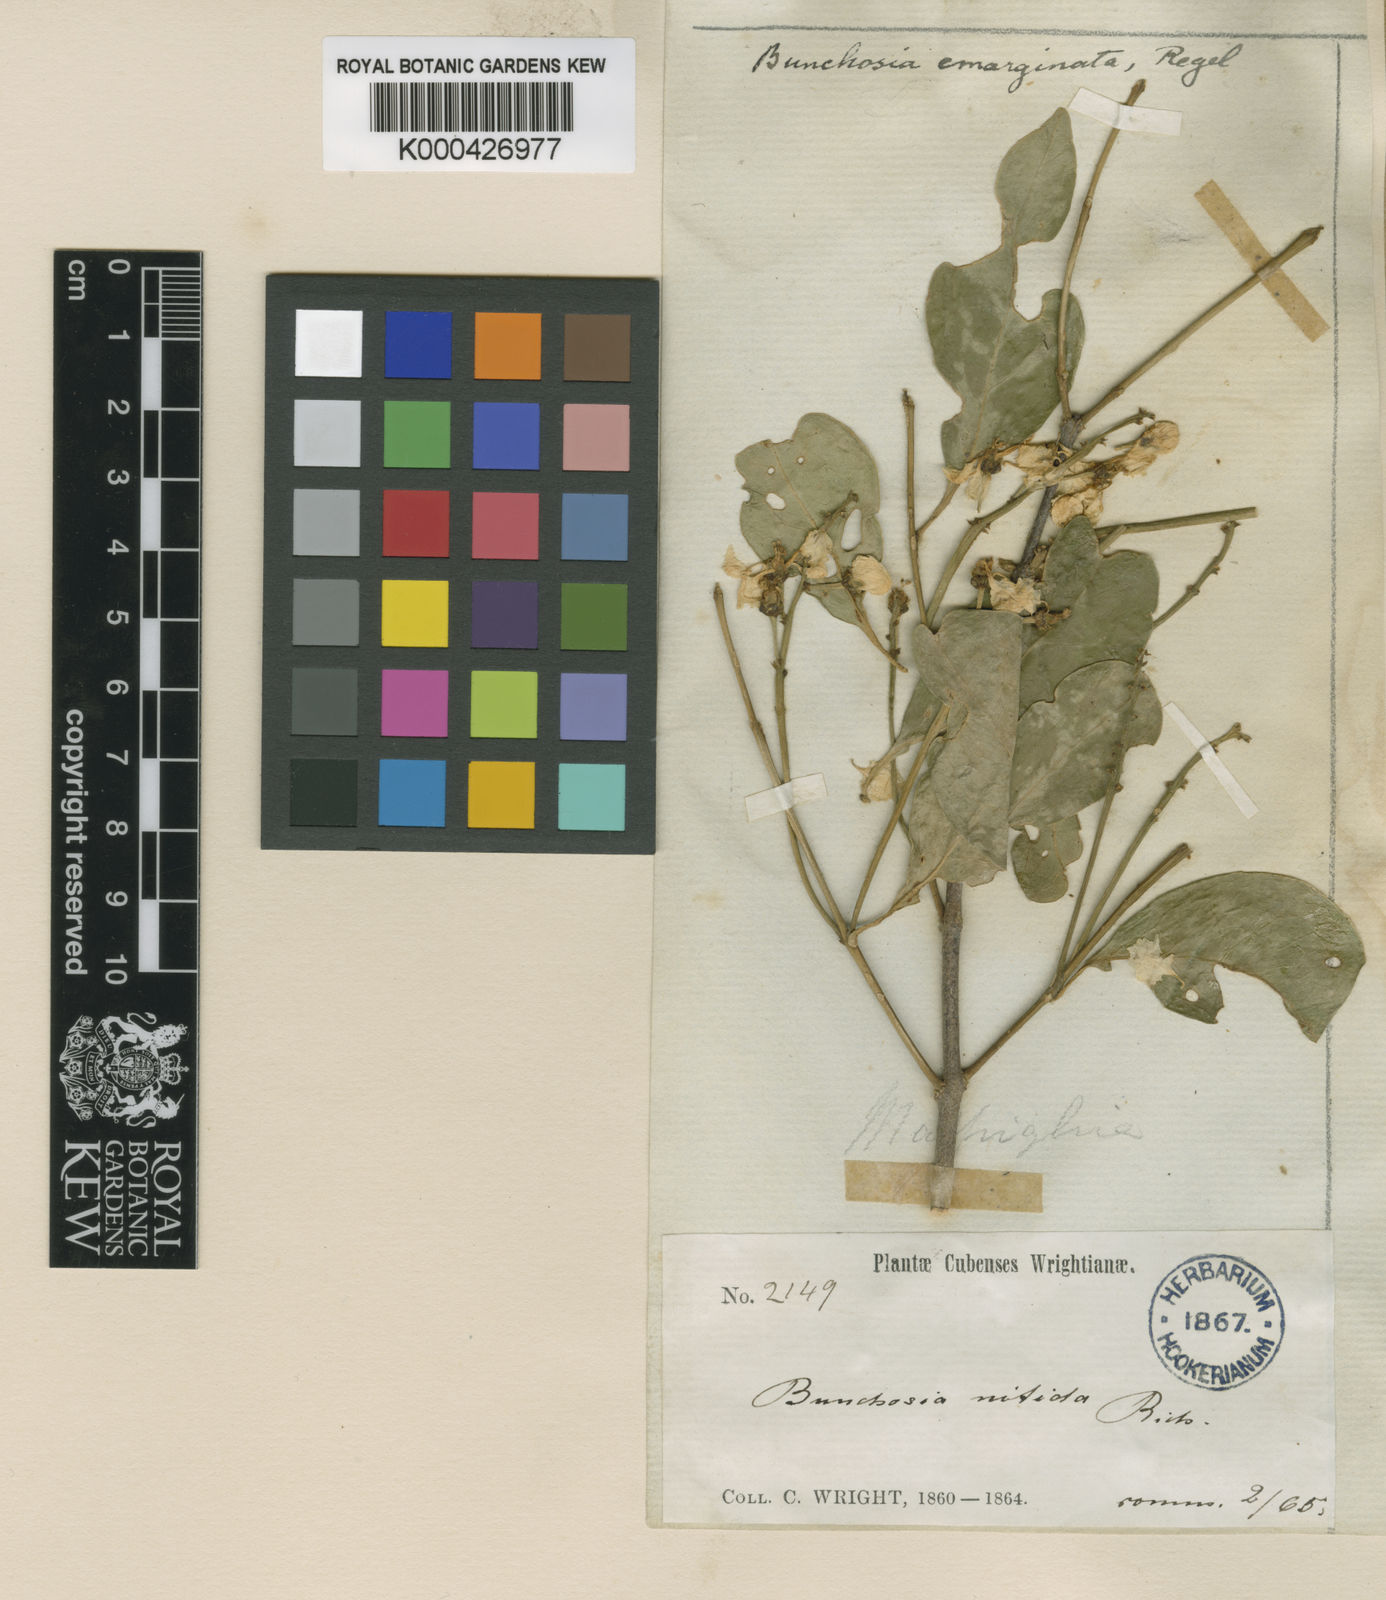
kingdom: Plantae
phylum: Tracheophyta
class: Magnoliopsida
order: Malpighiales
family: Malpighiaceae
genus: Bunchosia
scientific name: Bunchosia emarginata
